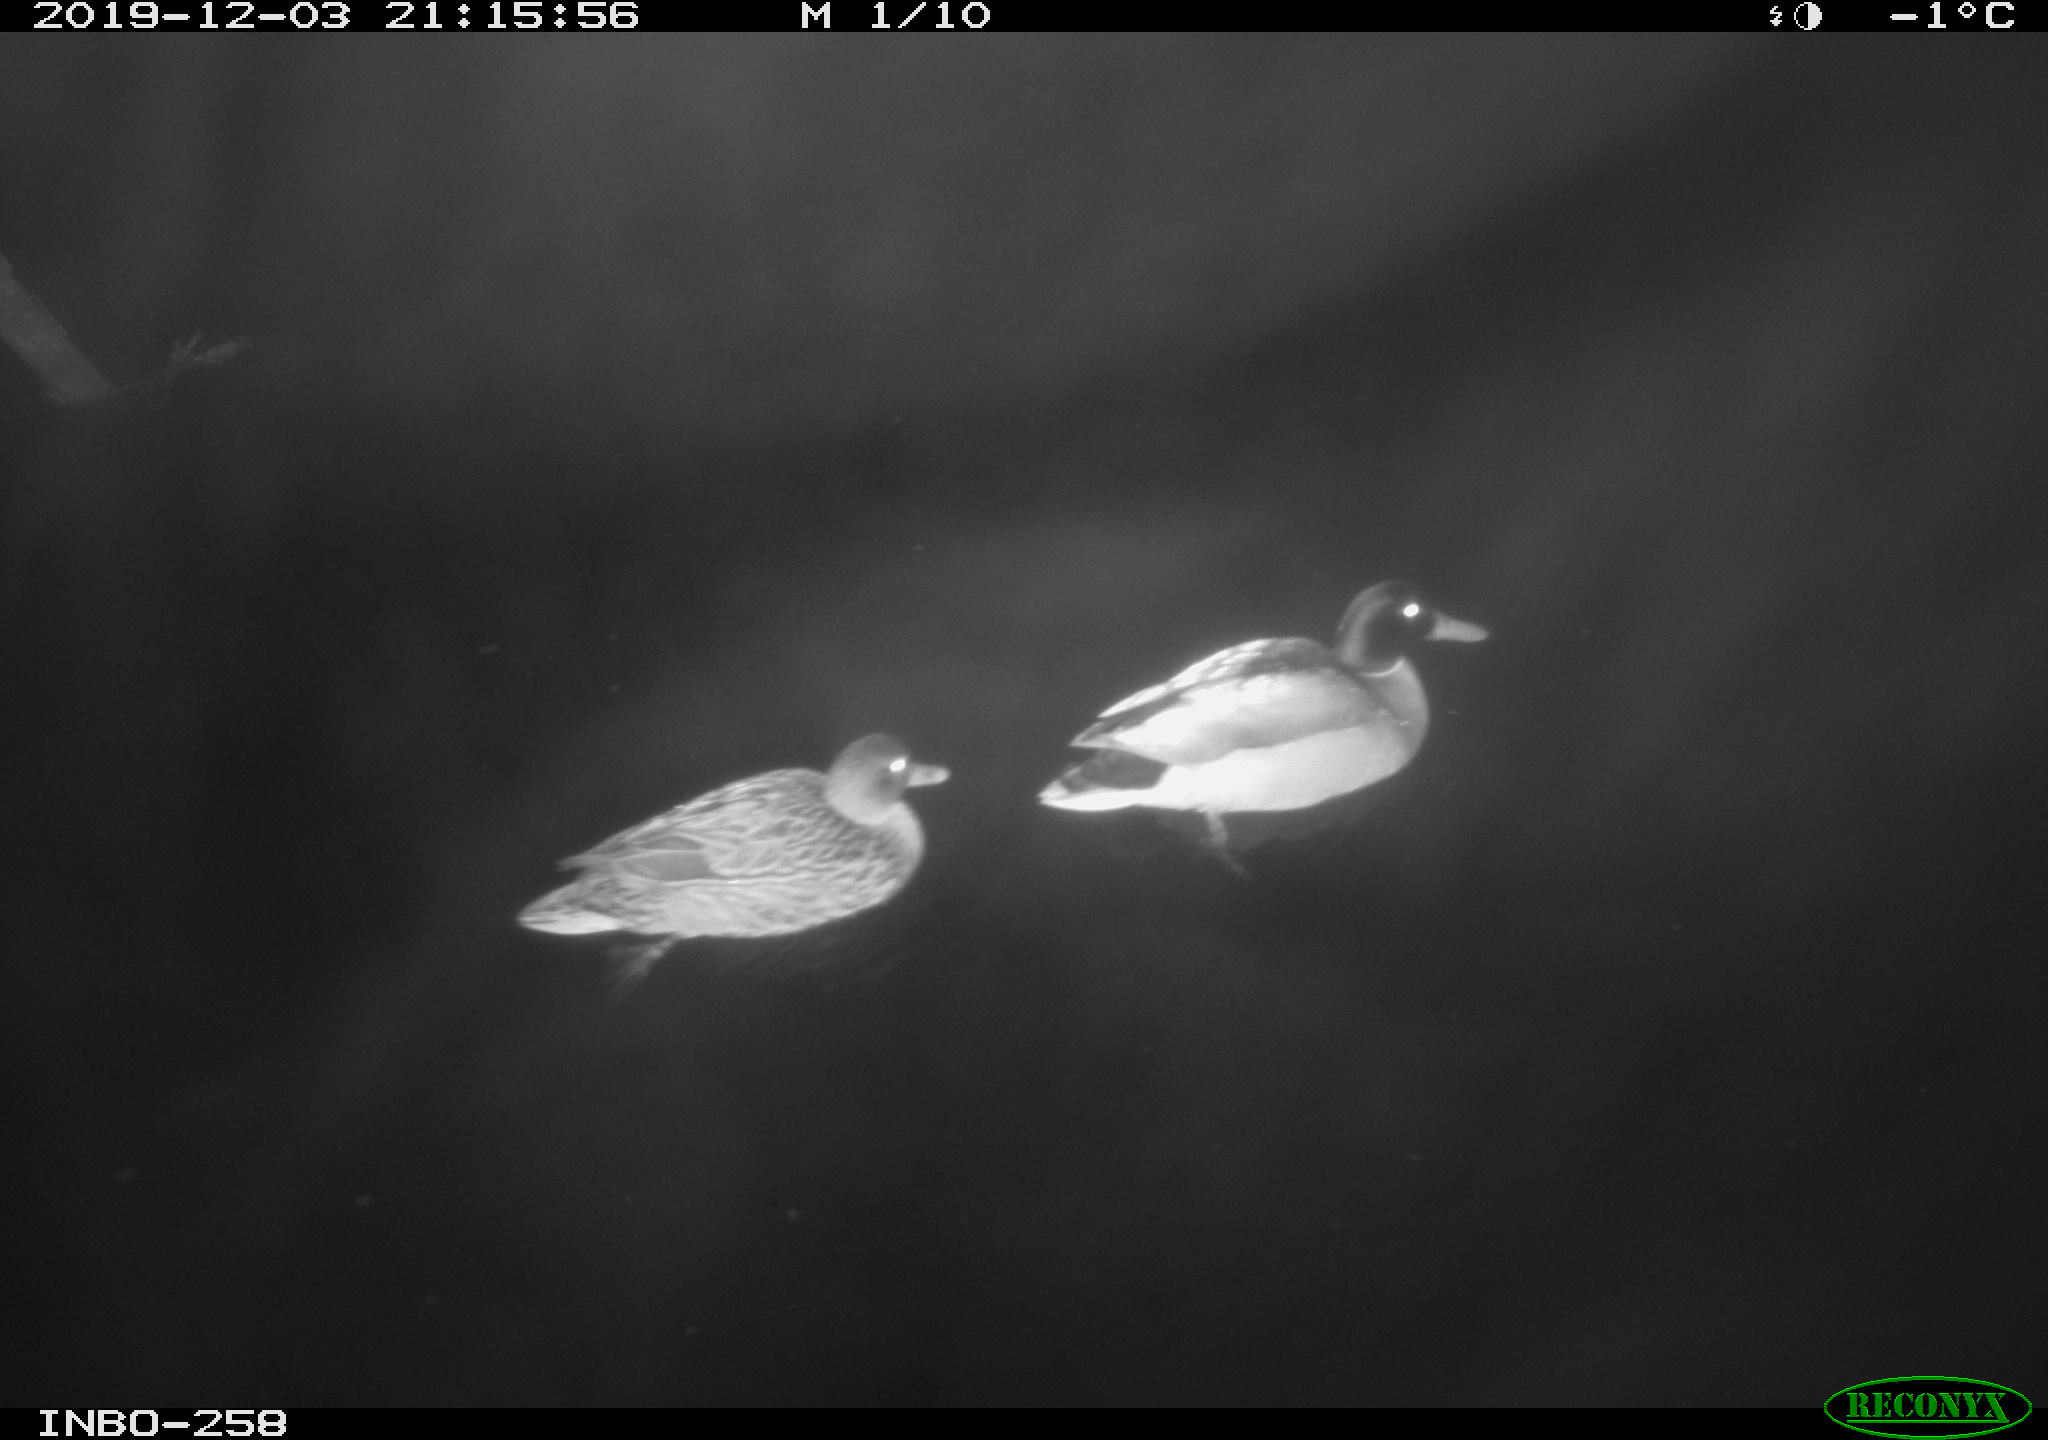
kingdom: Animalia
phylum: Chordata
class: Aves
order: Anseriformes
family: Anatidae
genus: Anas
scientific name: Anas platyrhynchos
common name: Mallard
